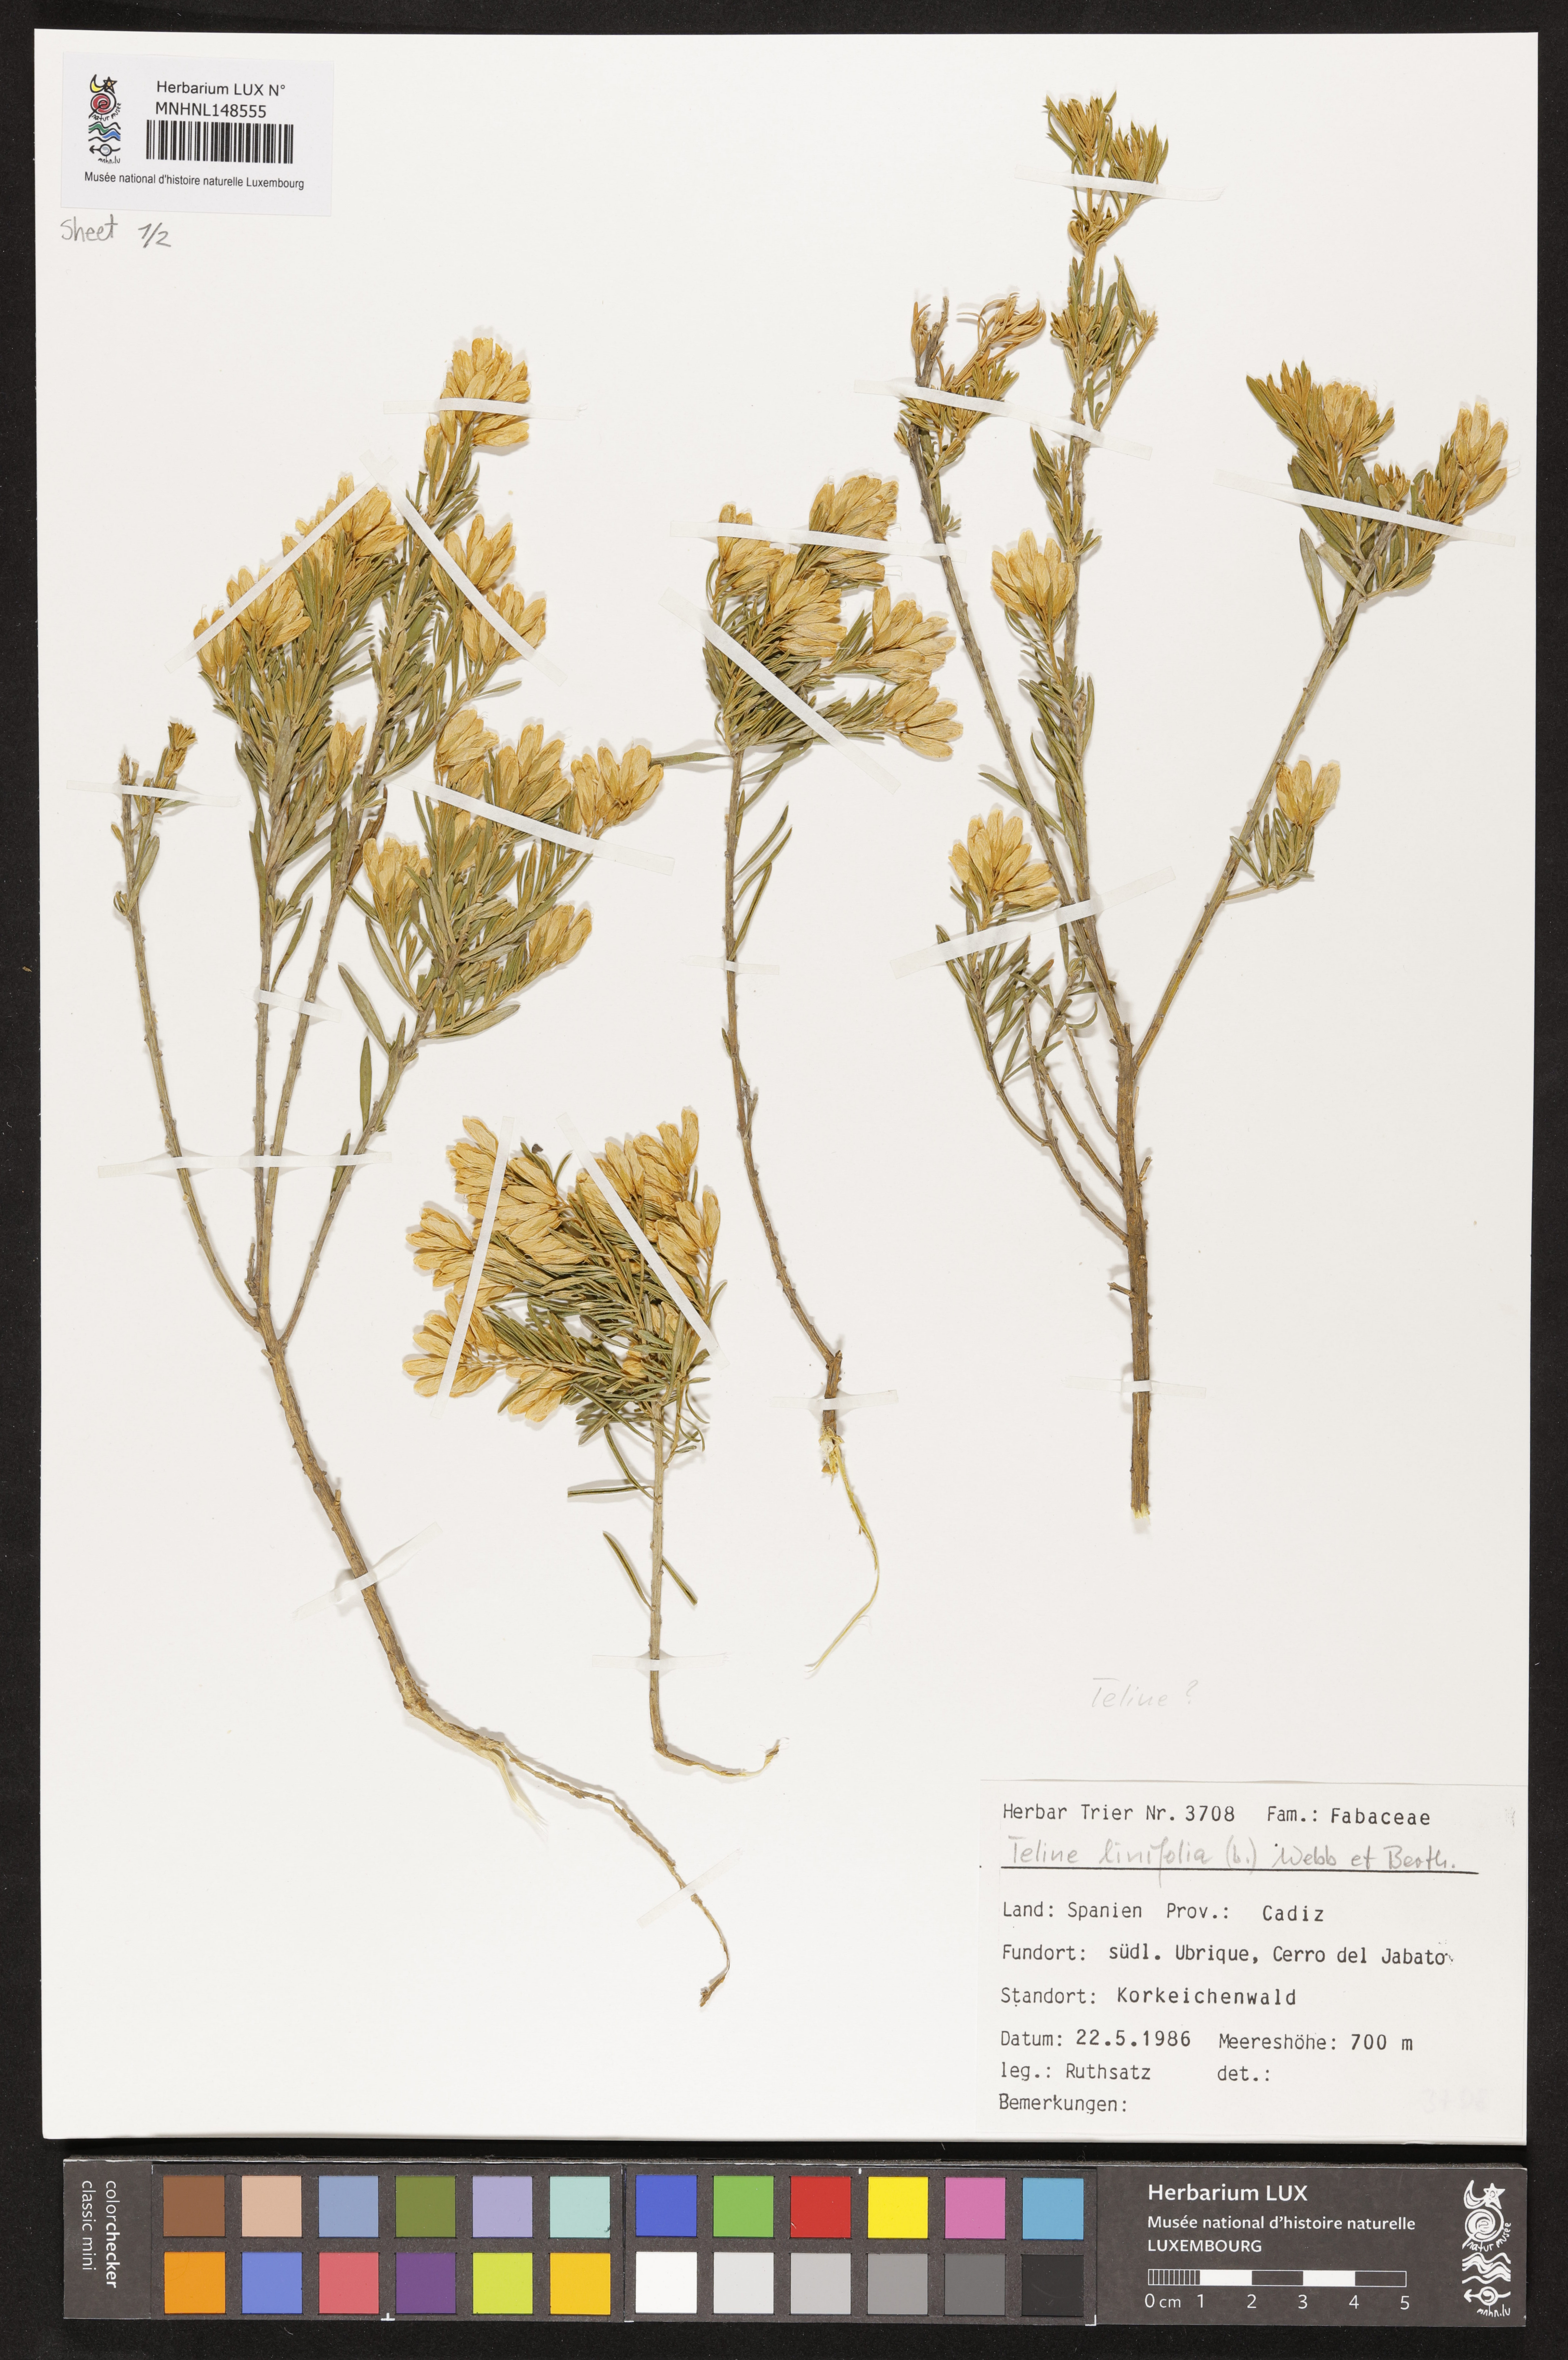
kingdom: Plantae
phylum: Tracheophyta
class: Magnoliopsida
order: Fabales
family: Fabaceae
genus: Genista
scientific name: Genista linifolia
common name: Mediterranean broom
